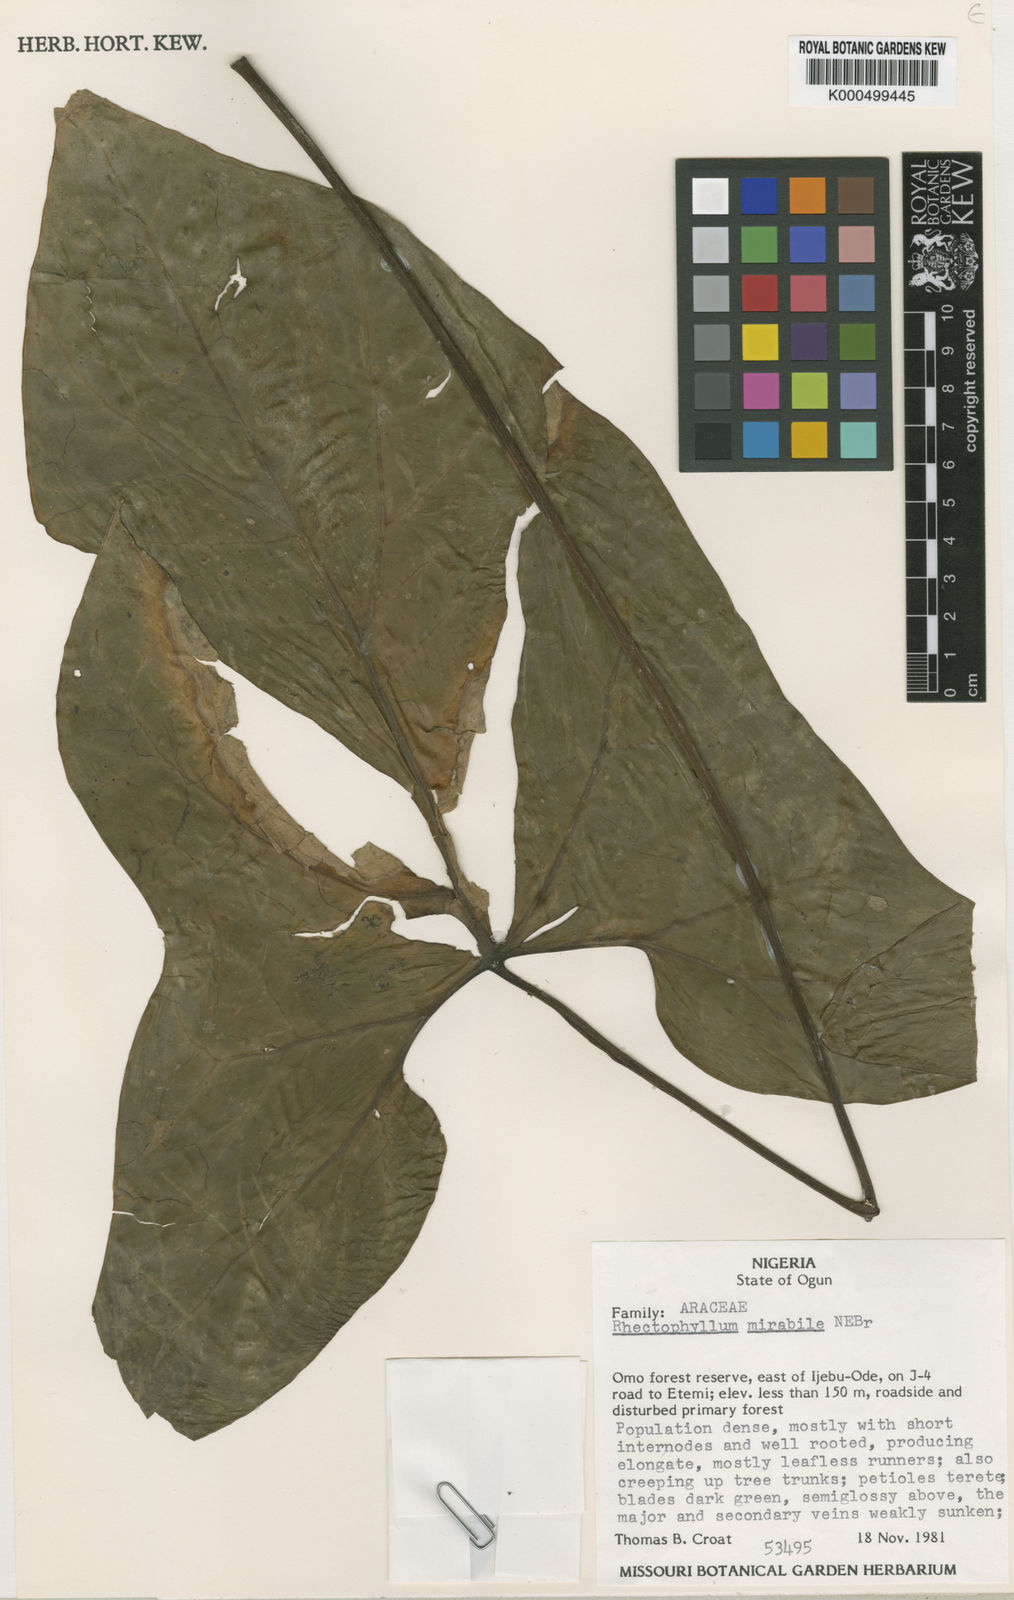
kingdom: Plantae
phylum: Tracheophyta
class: Liliopsida
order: Alismatales
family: Araceae
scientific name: Araceae
